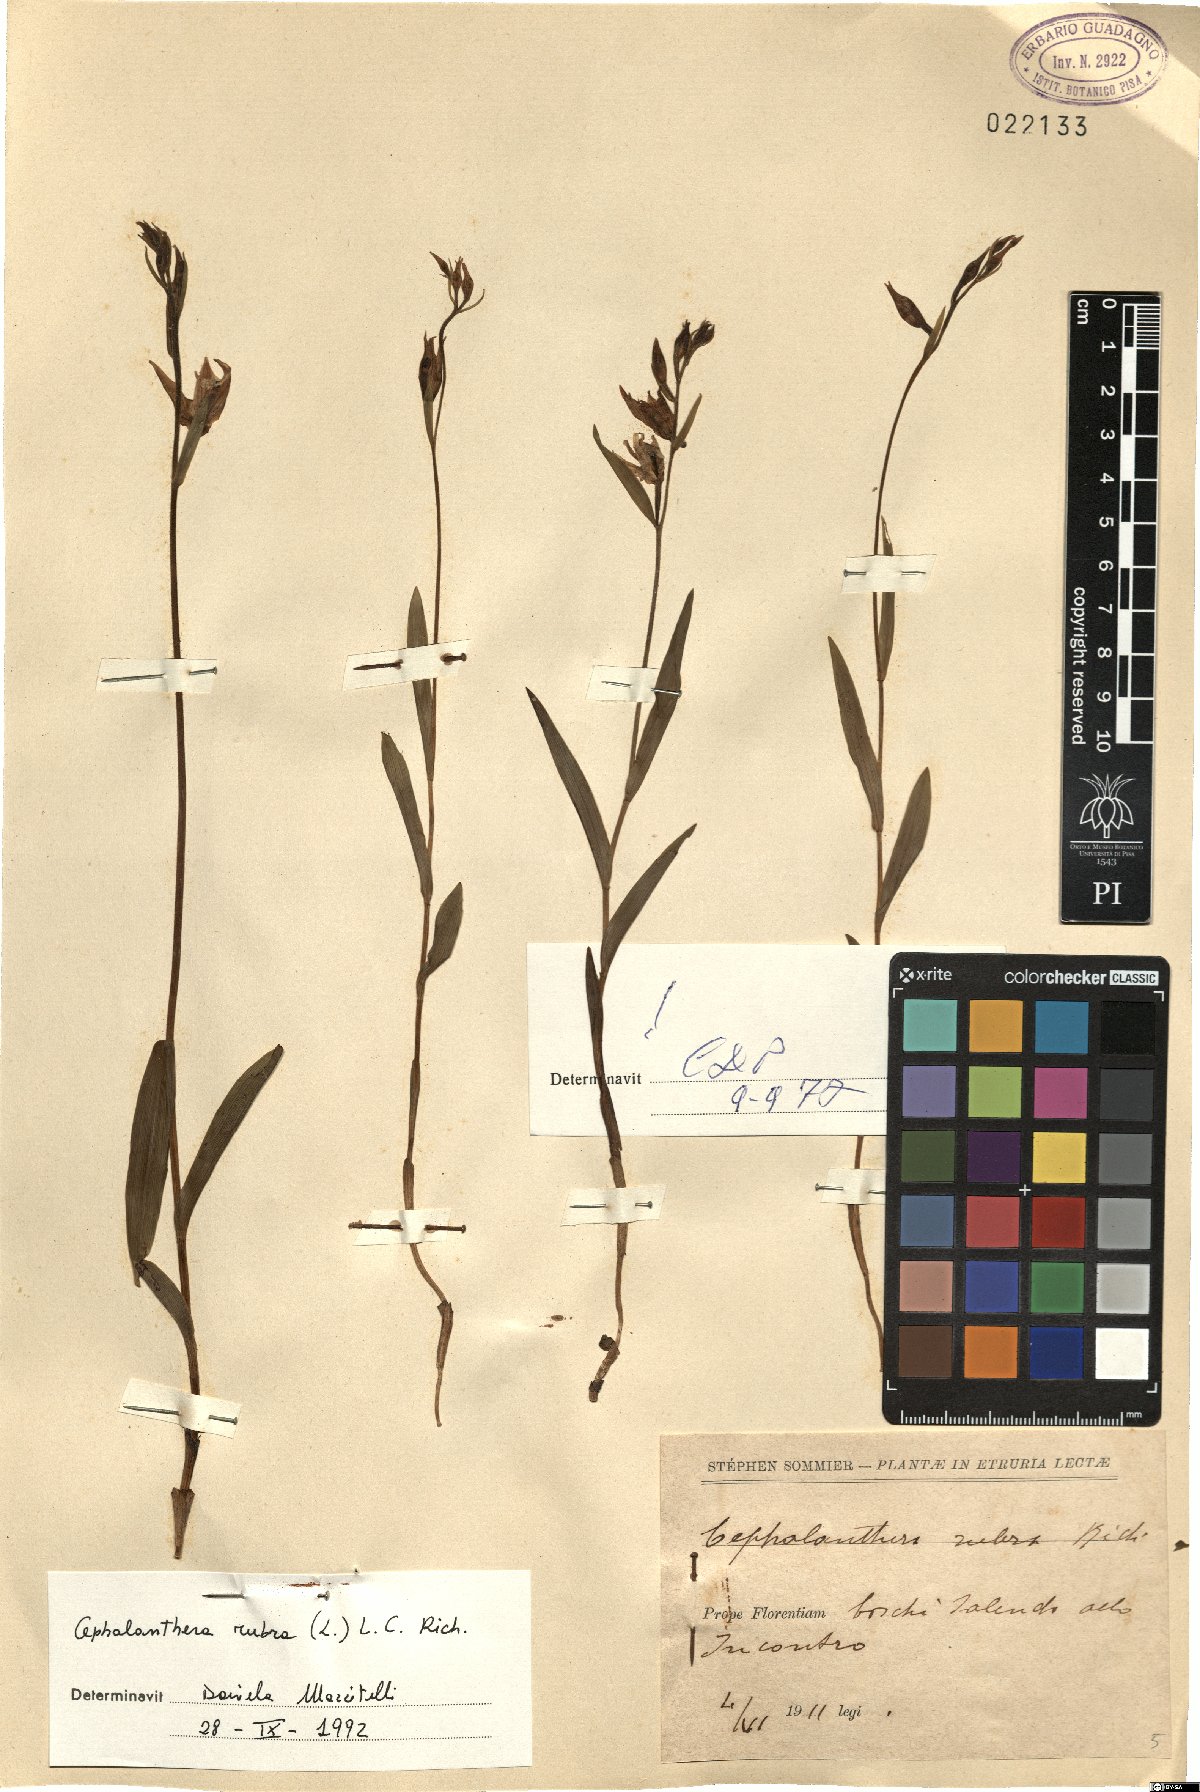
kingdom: Plantae
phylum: Tracheophyta
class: Liliopsida
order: Asparagales
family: Orchidaceae
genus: Cephalanthera
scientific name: Cephalanthera rubra
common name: Red helleborine
